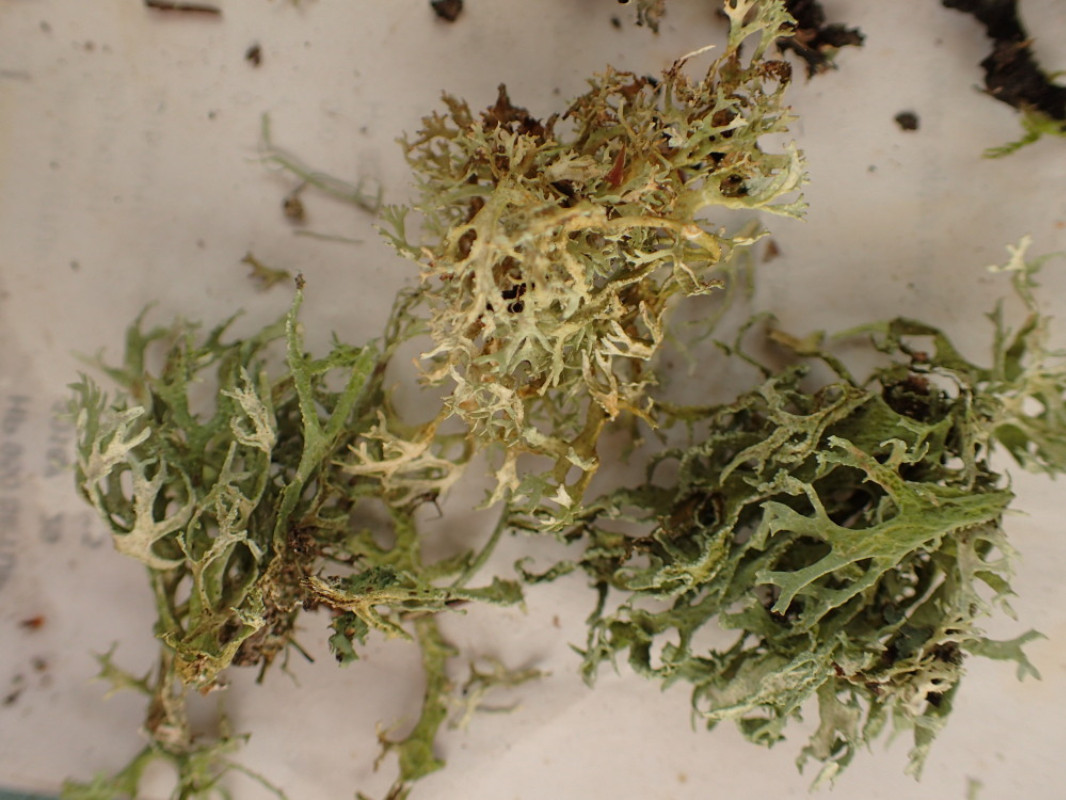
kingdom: Fungi
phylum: Ascomycota
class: Lecanoromycetes
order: Lecanorales
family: Parmeliaceae
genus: Evernia
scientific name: Evernia prunastri
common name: almindelig slåenlav
